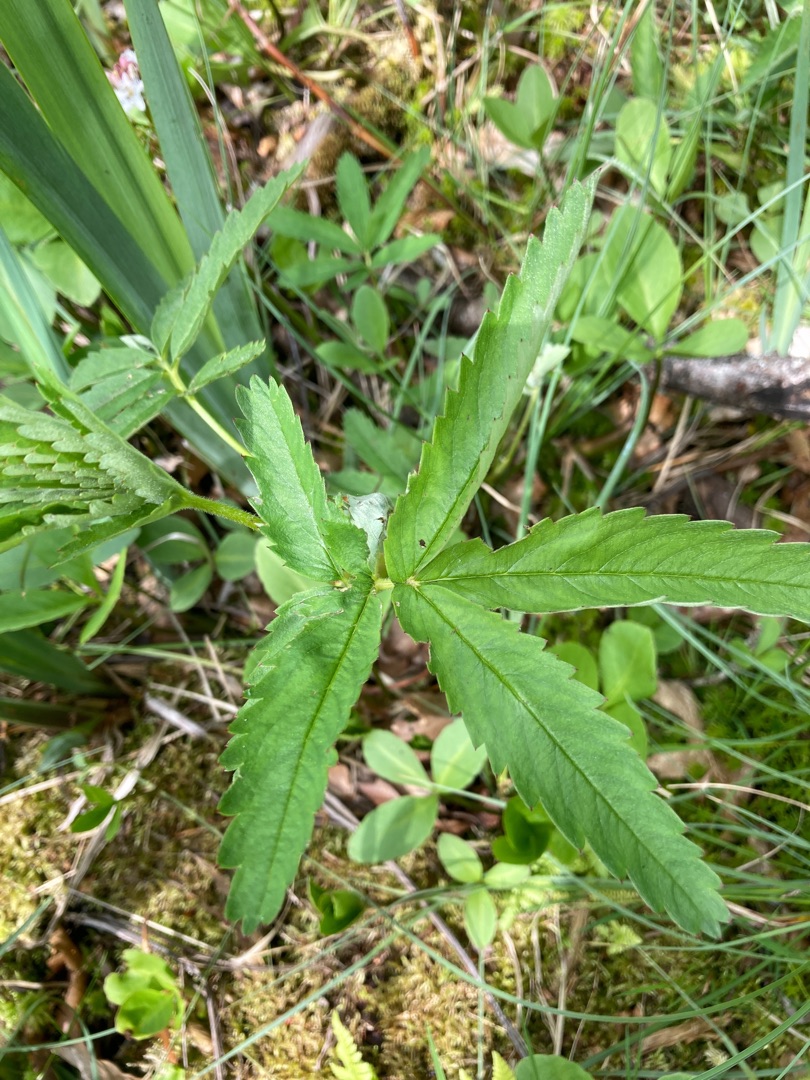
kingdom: Plantae
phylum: Tracheophyta
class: Magnoliopsida
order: Rosales
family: Rosaceae
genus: Comarum
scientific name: Comarum palustre
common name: Kragefod
